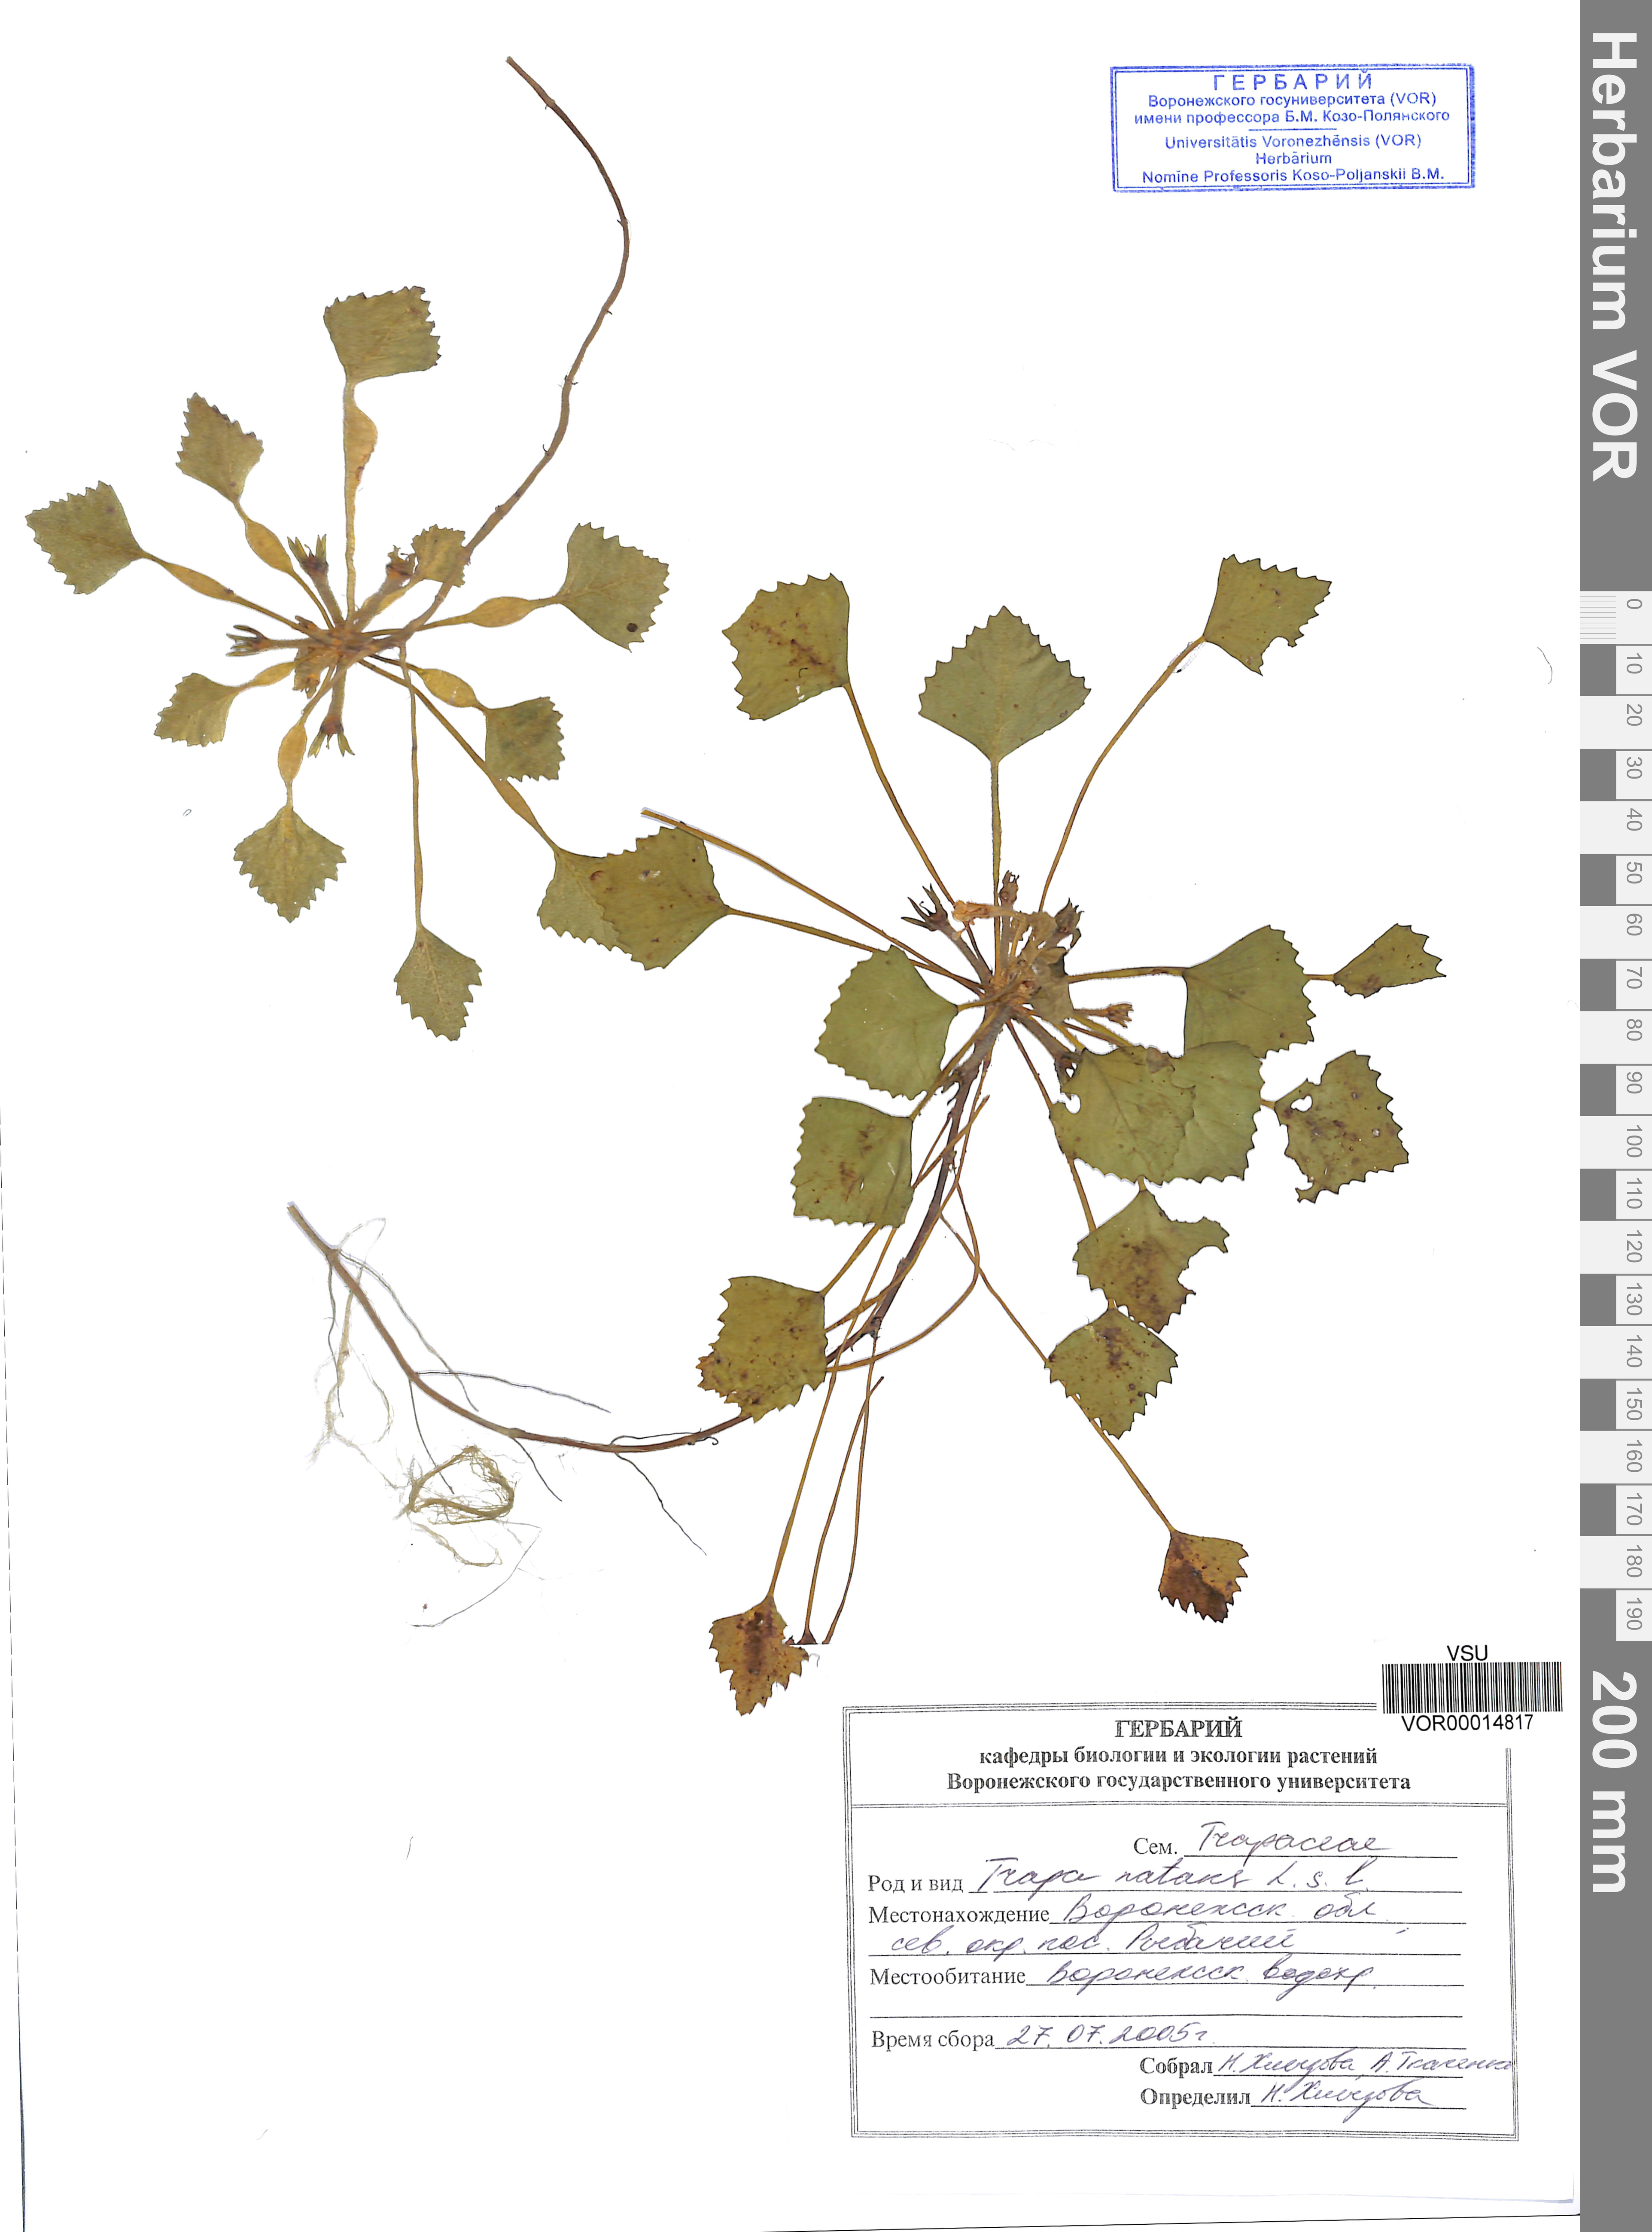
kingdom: Plantae
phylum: Tracheophyta
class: Magnoliopsida
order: Myrtales
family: Lythraceae
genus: Trapa
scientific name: Trapa natans
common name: Water chestnut
